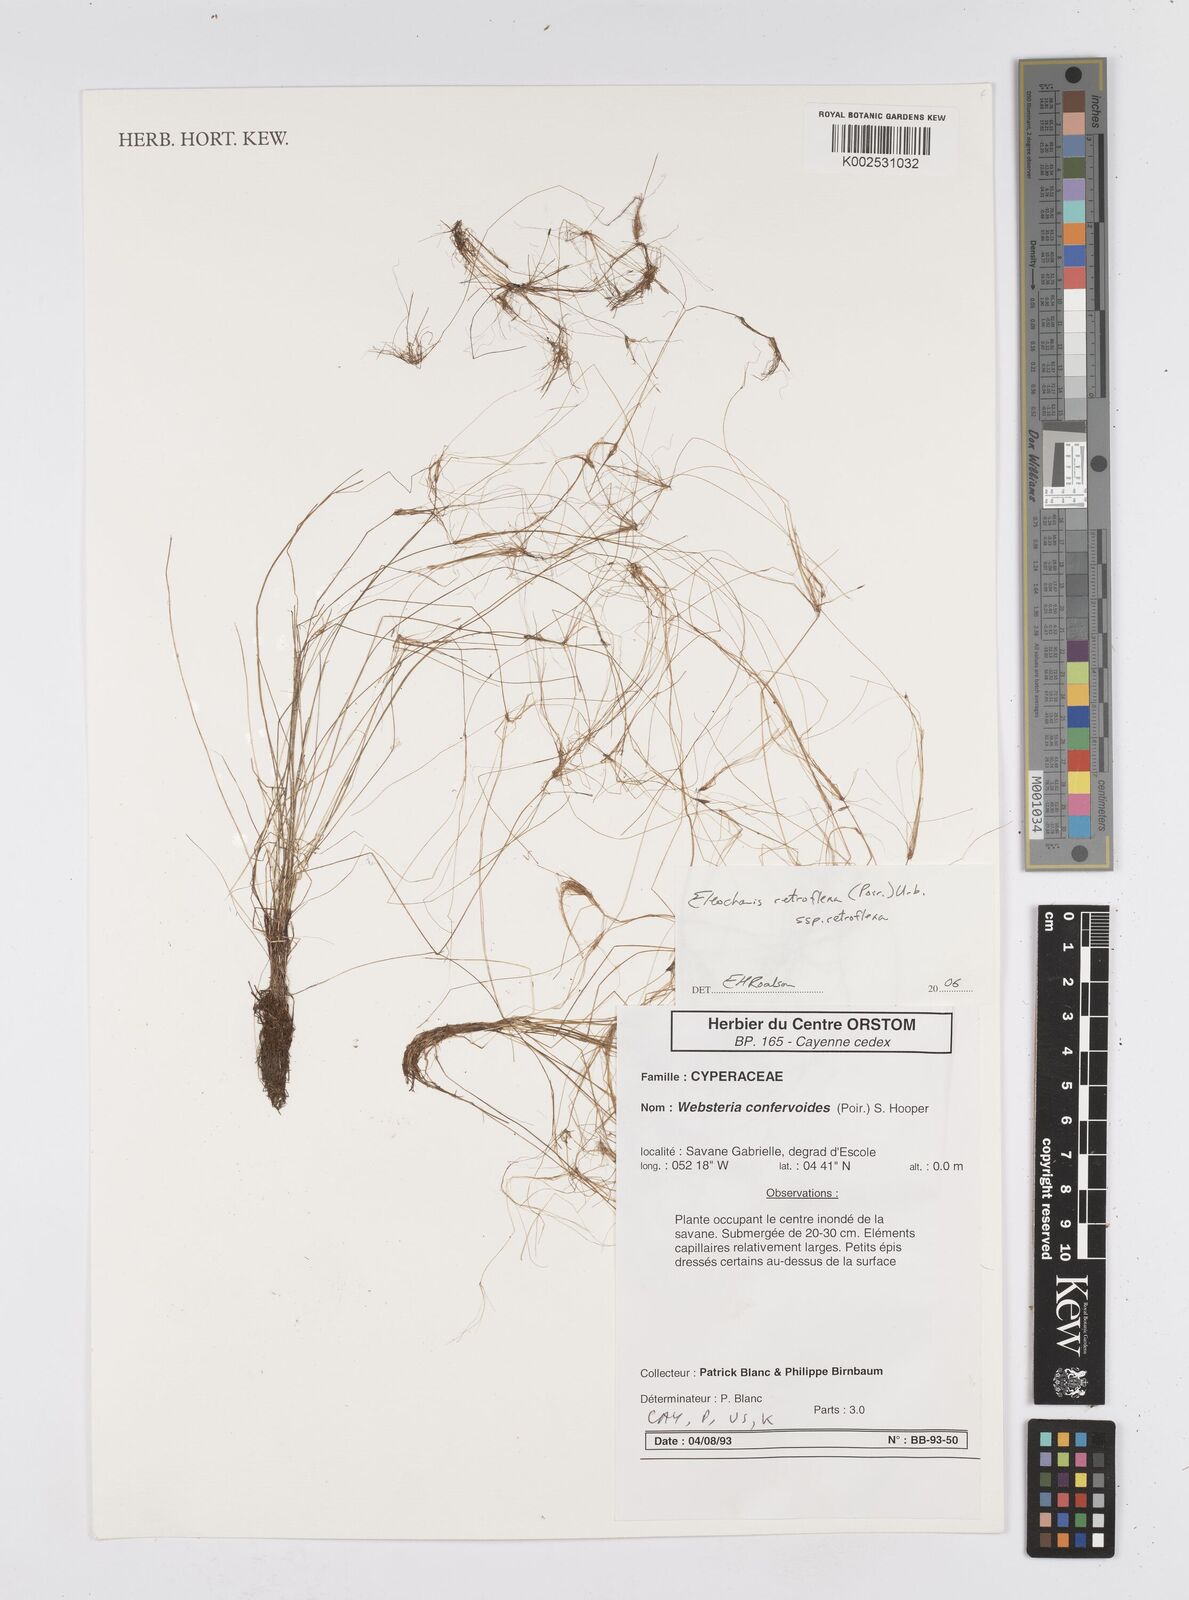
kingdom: Plantae
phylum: Tracheophyta
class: Liliopsida
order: Poales
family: Cyperaceae
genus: Eleocharis
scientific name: Eleocharis retroflexa
